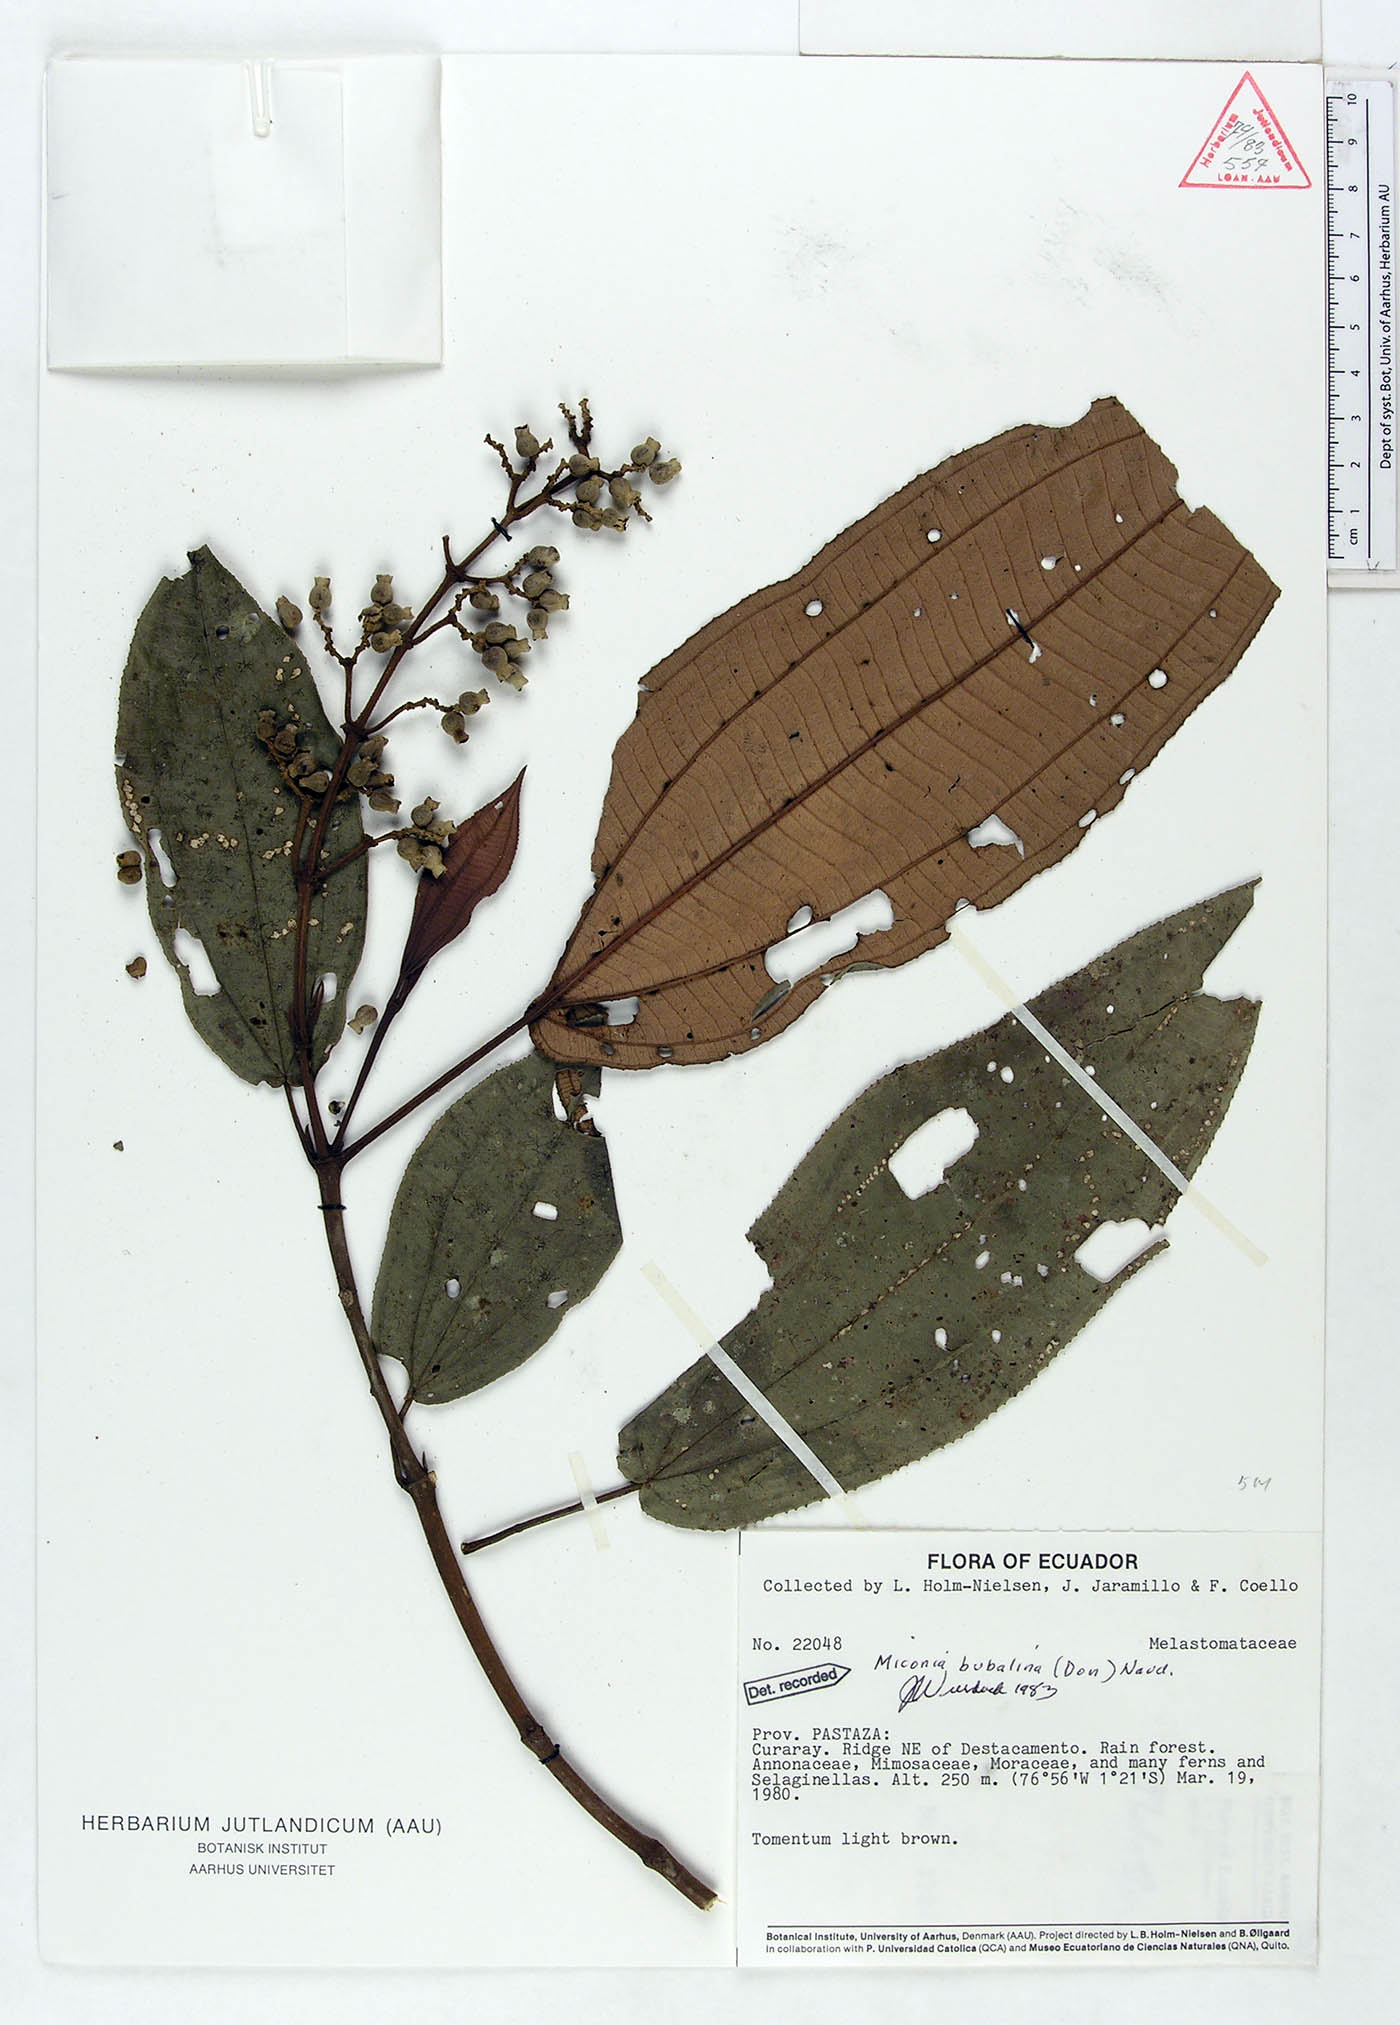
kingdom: Plantae
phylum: Tracheophyta
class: Magnoliopsida
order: Myrtales
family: Melastomataceae
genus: Miconia
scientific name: Miconia bubalina
